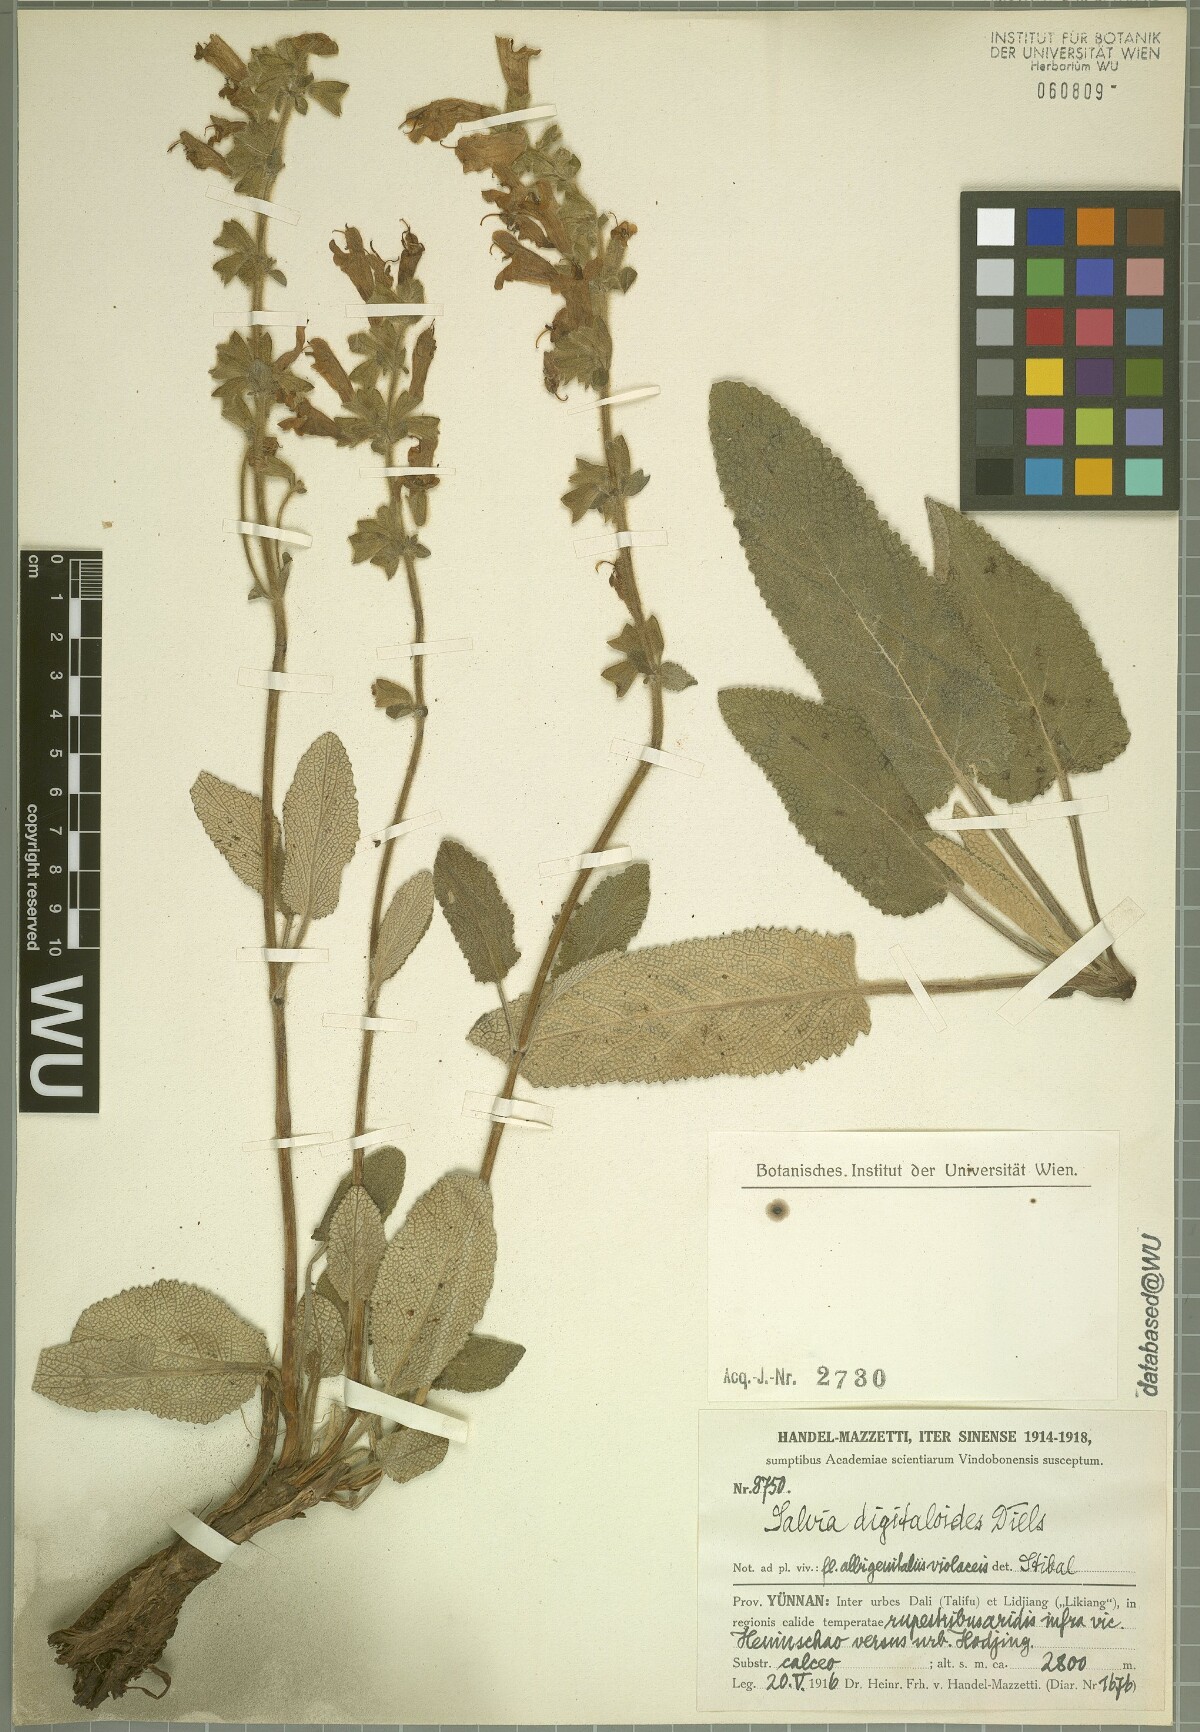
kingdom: Plantae
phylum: Tracheophyta
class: Magnoliopsida
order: Lamiales
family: Lamiaceae
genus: Salvia
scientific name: Salvia digitaloides
